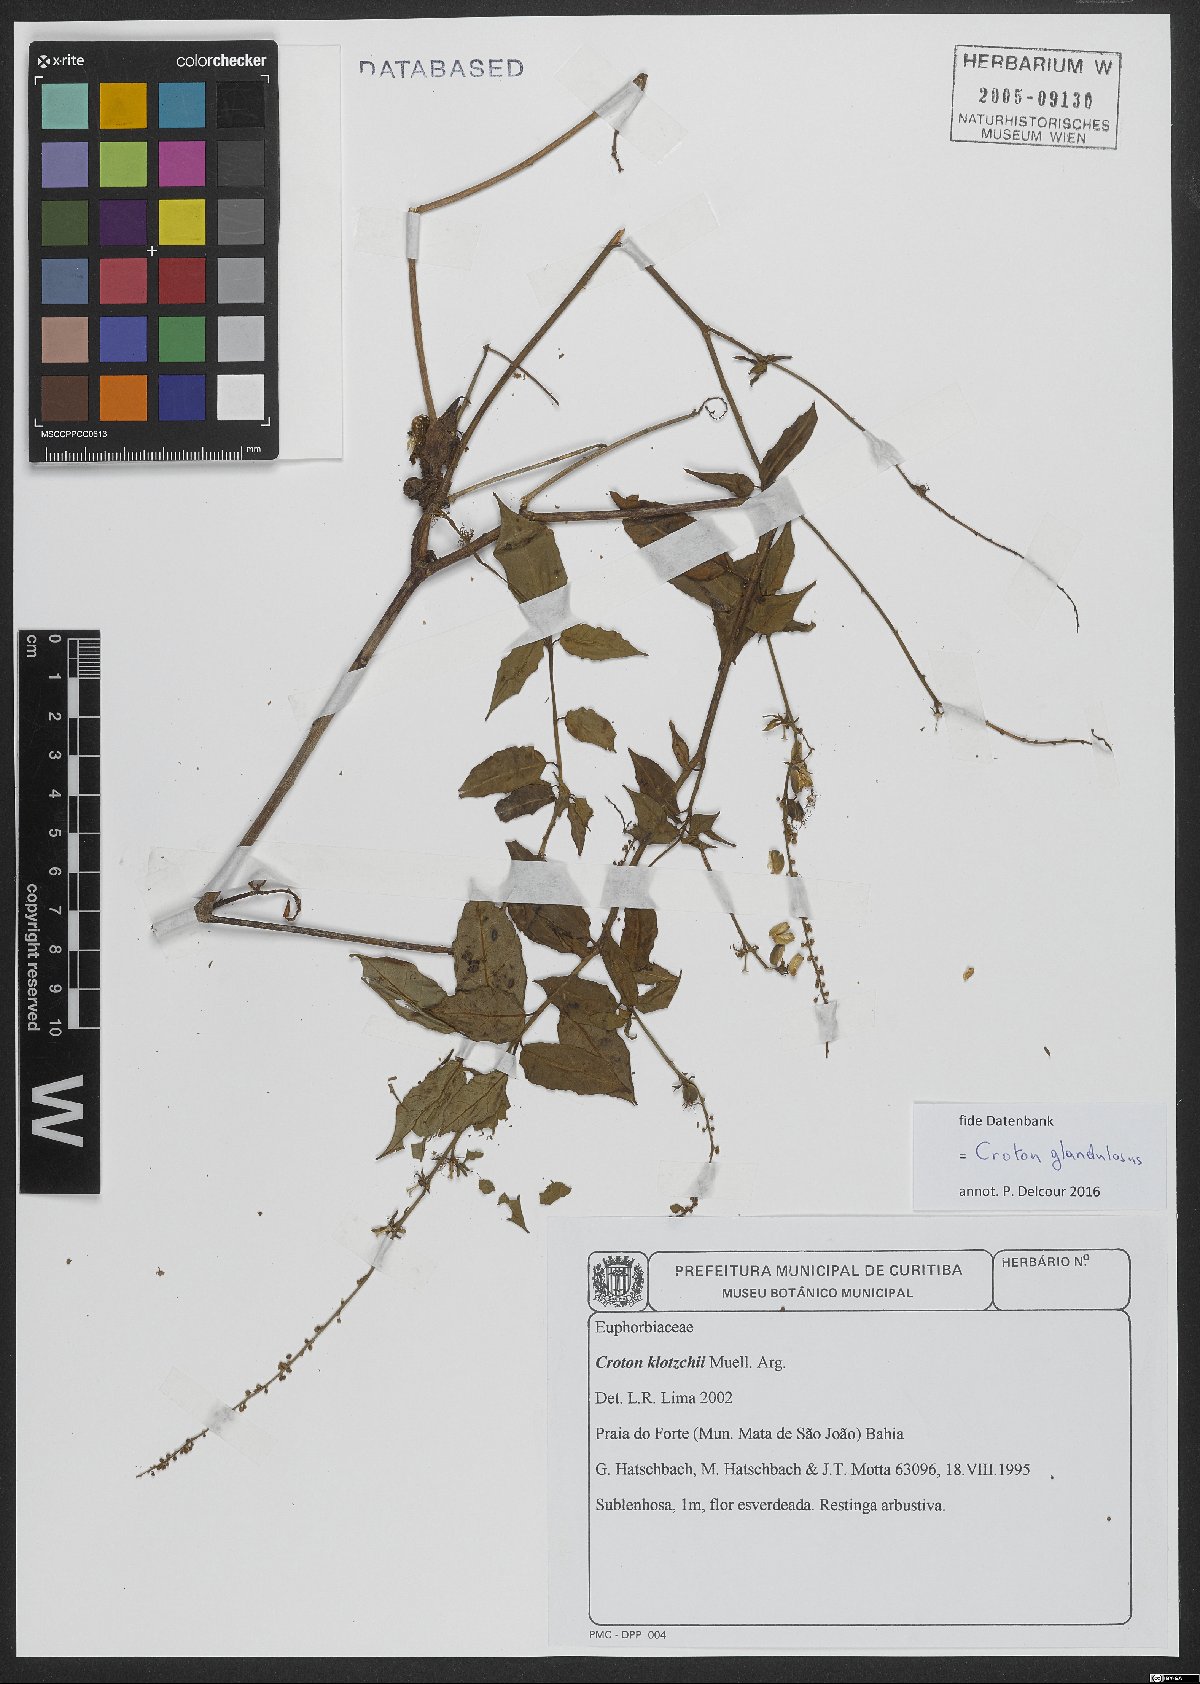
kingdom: Plantae
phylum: Tracheophyta
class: Magnoliopsida
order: Malpighiales
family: Euphorbiaceae
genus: Croton
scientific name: Croton glandulosus
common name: Tropic croton
